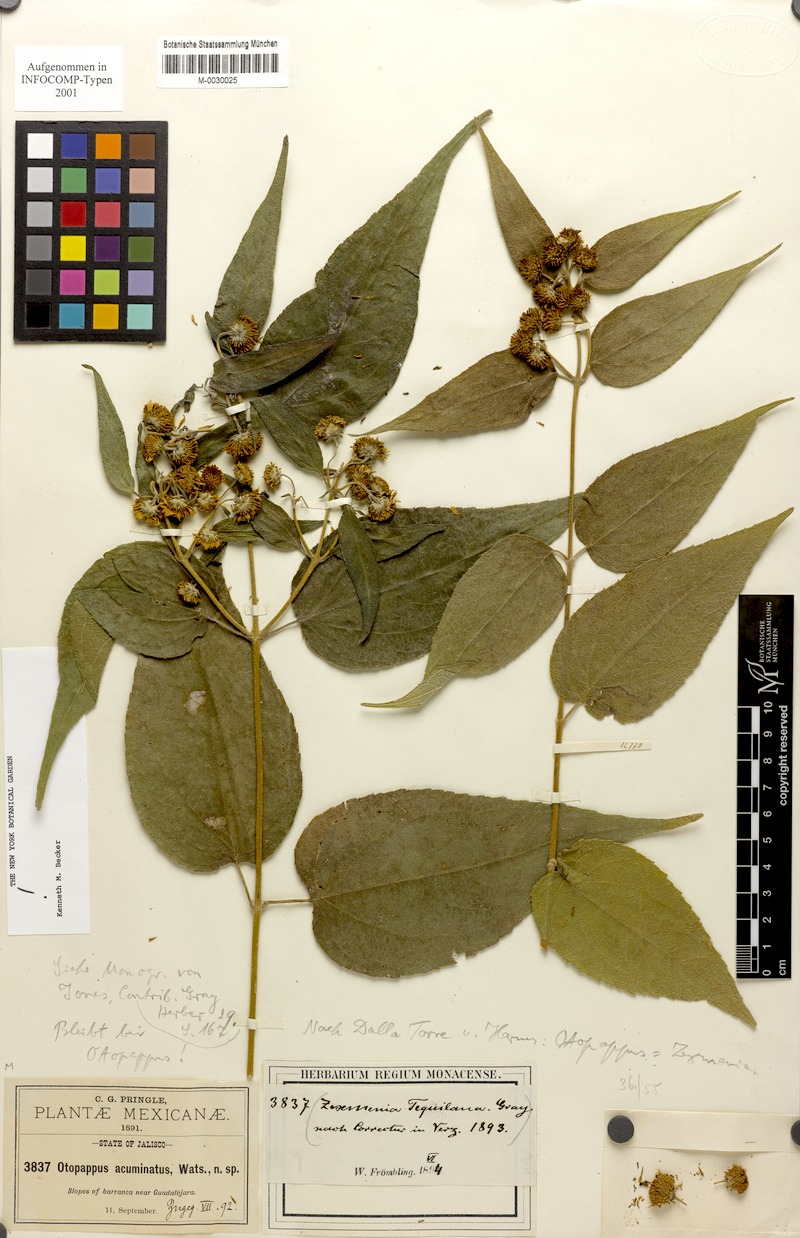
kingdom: Plantae
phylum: Tracheophyta
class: Magnoliopsida
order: Asterales
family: Asteraceae
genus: Otopappus
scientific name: Otopappus tequilanus
